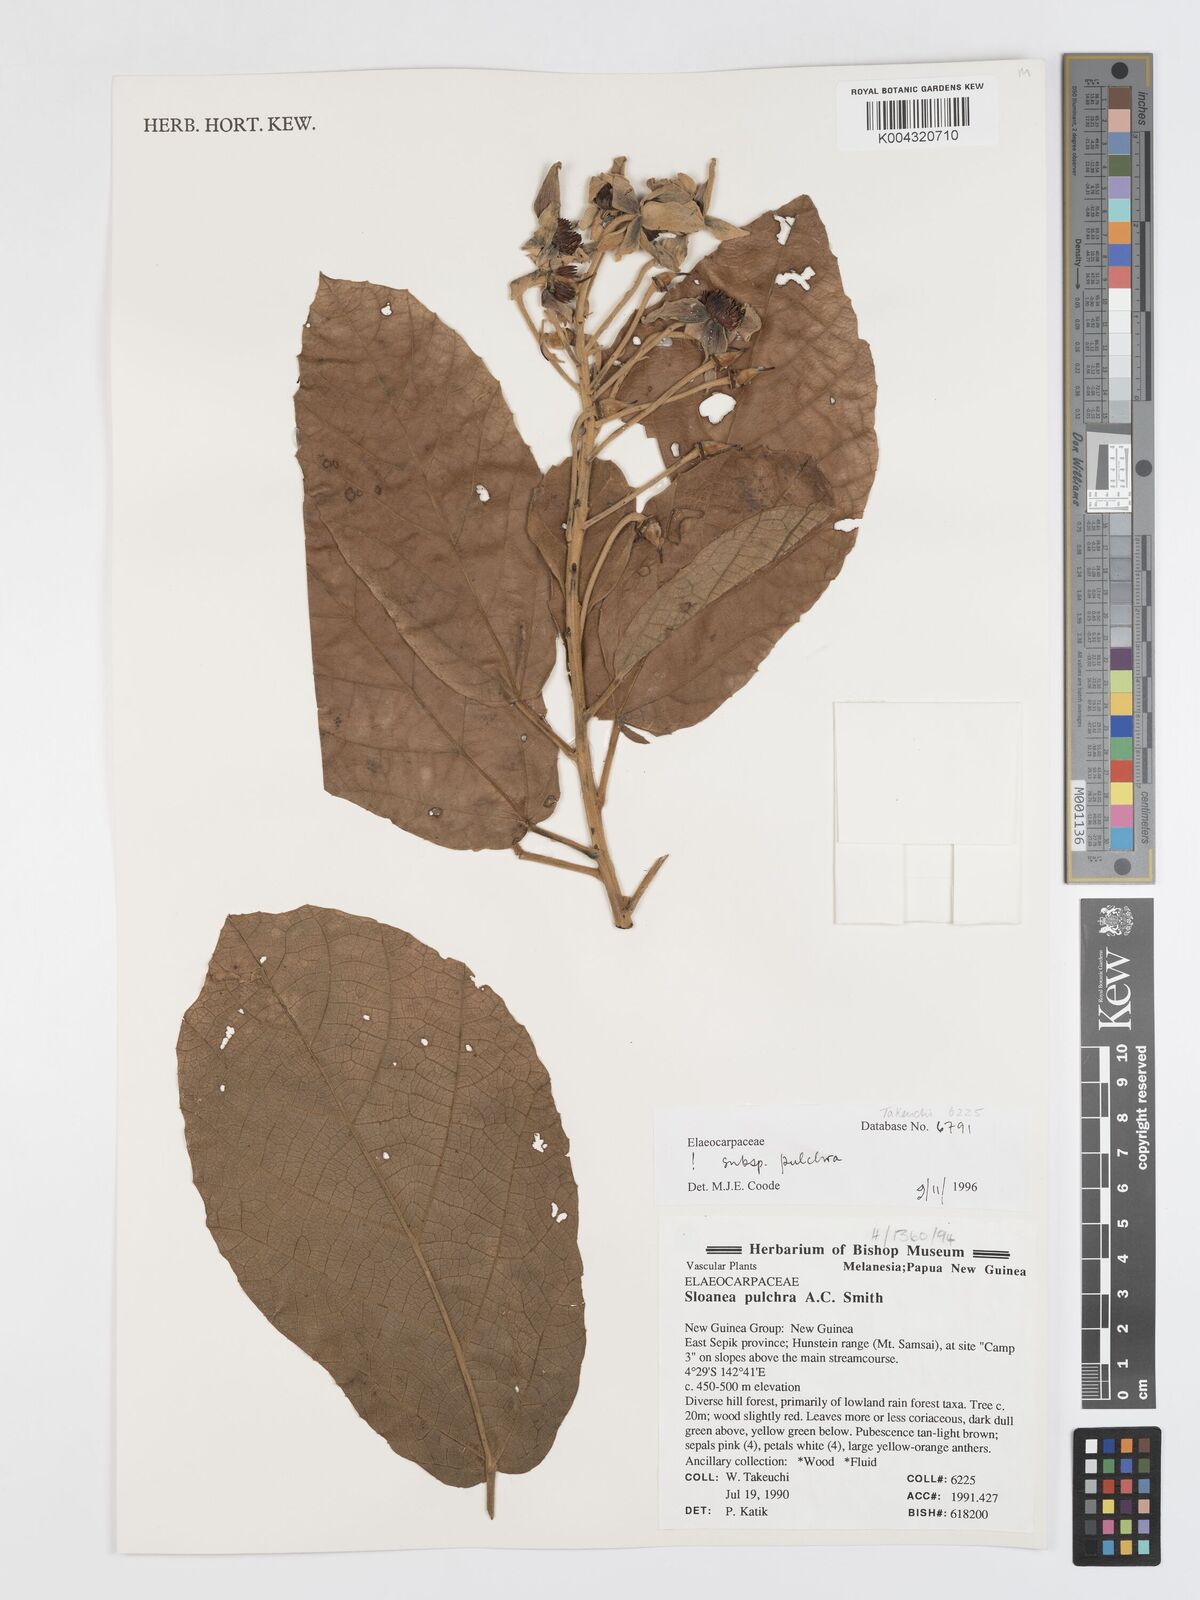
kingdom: Plantae
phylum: Tracheophyta
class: Magnoliopsida
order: Oxalidales
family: Elaeocarpaceae
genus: Sloanea
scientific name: Sloanea pulchra
